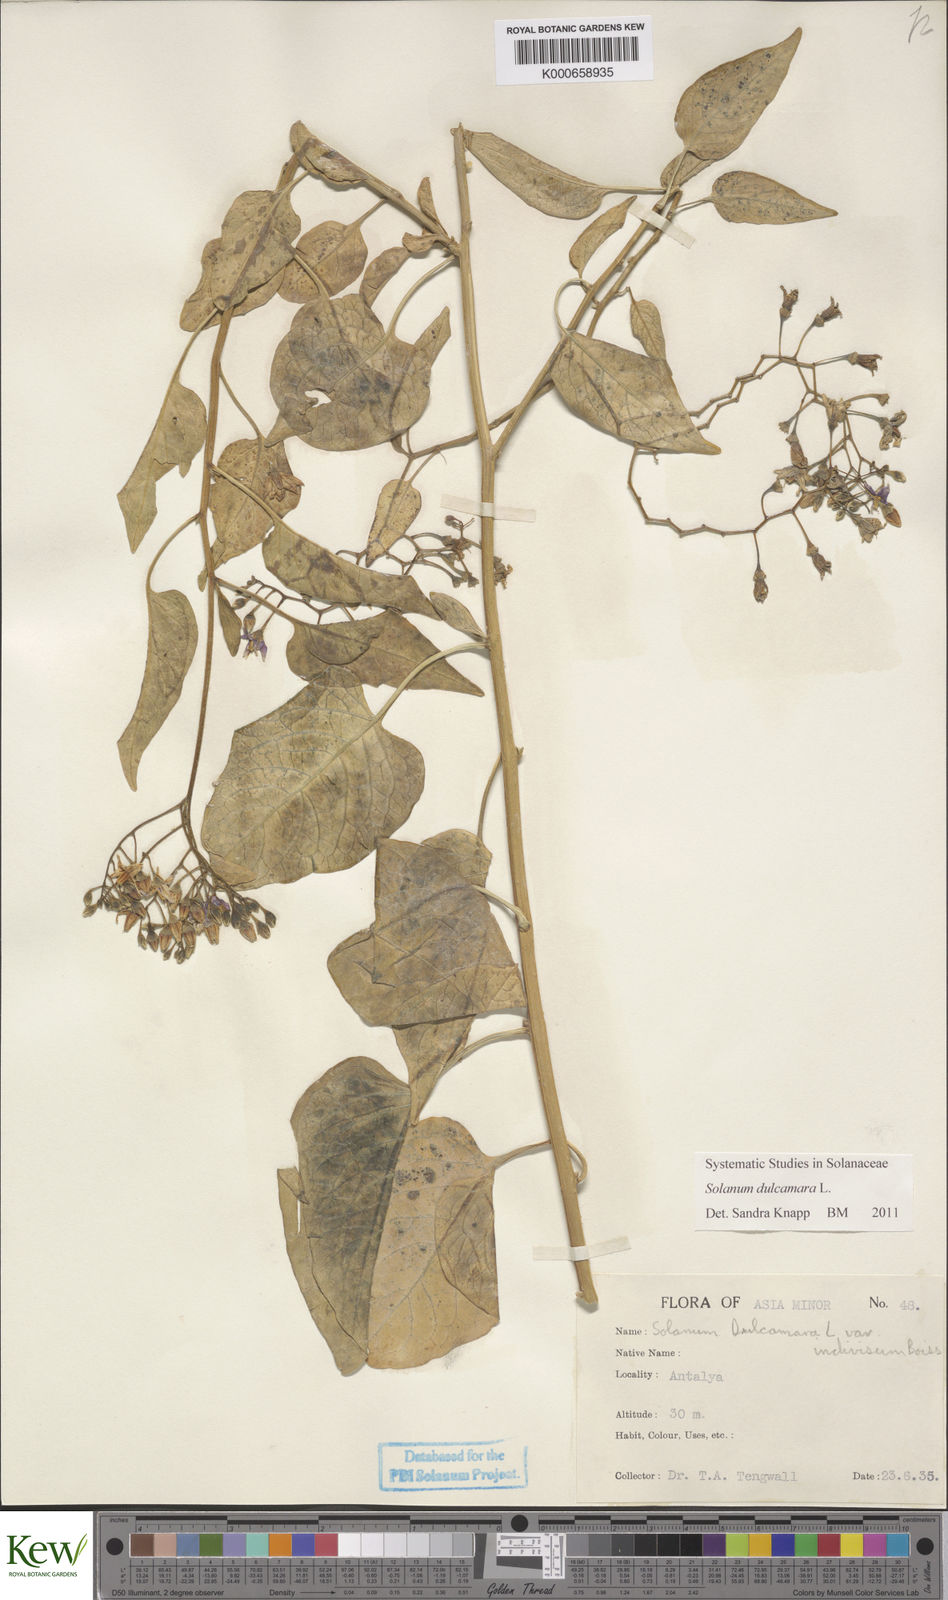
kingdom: Plantae
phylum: Tracheophyta
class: Magnoliopsida
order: Solanales
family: Solanaceae
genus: Solanum
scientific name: Solanum dulcamara
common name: Climbing nightshade
